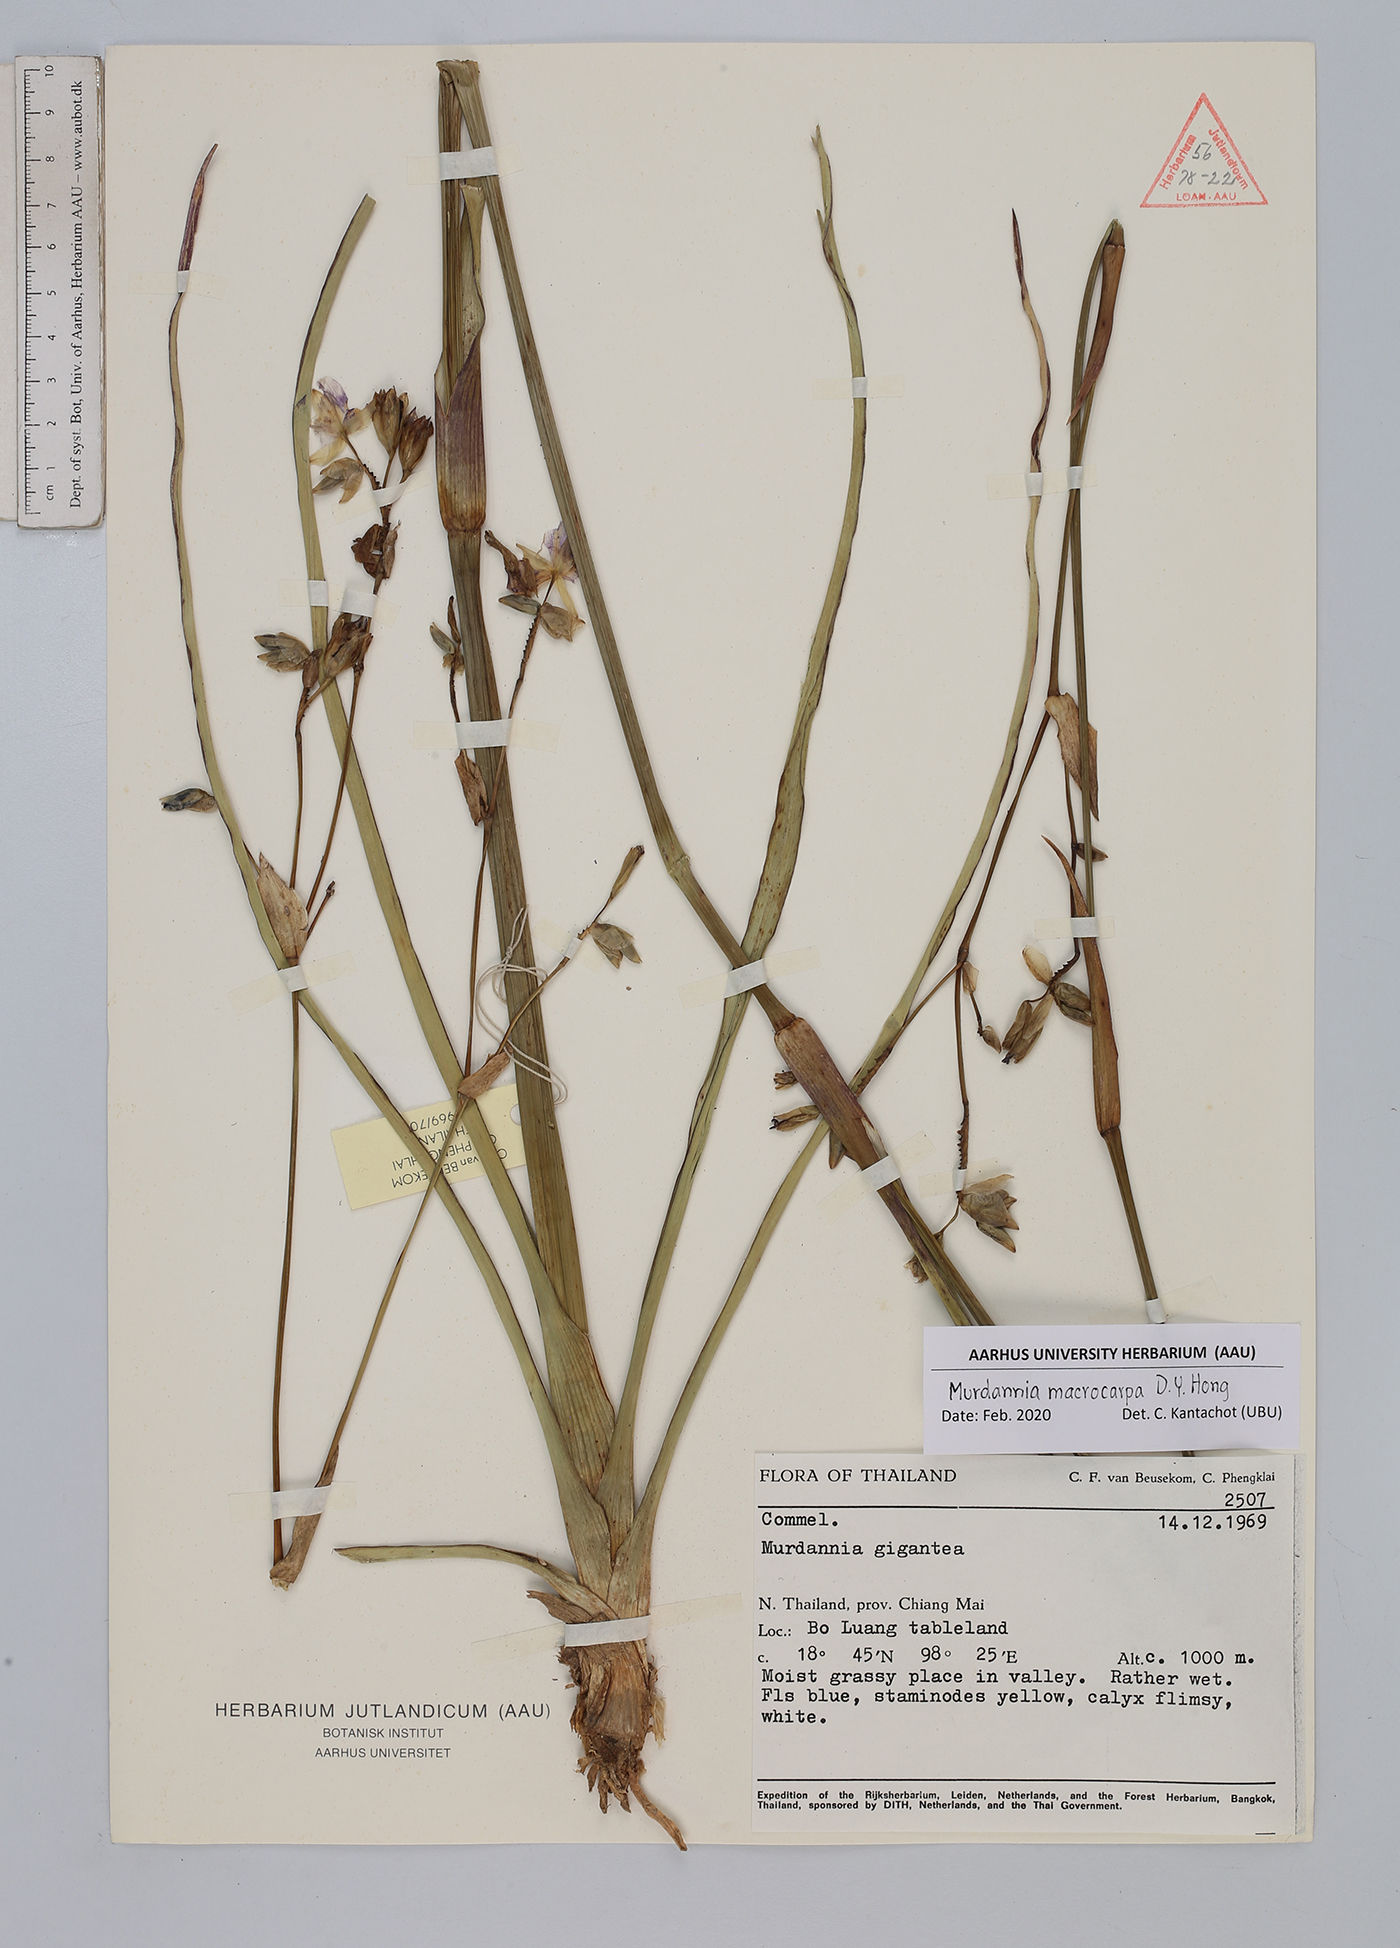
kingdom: Plantae
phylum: Tracheophyta
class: Liliopsida
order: Commelinales
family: Commelinaceae
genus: Murdannia
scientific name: Murdannia macrocarpa
